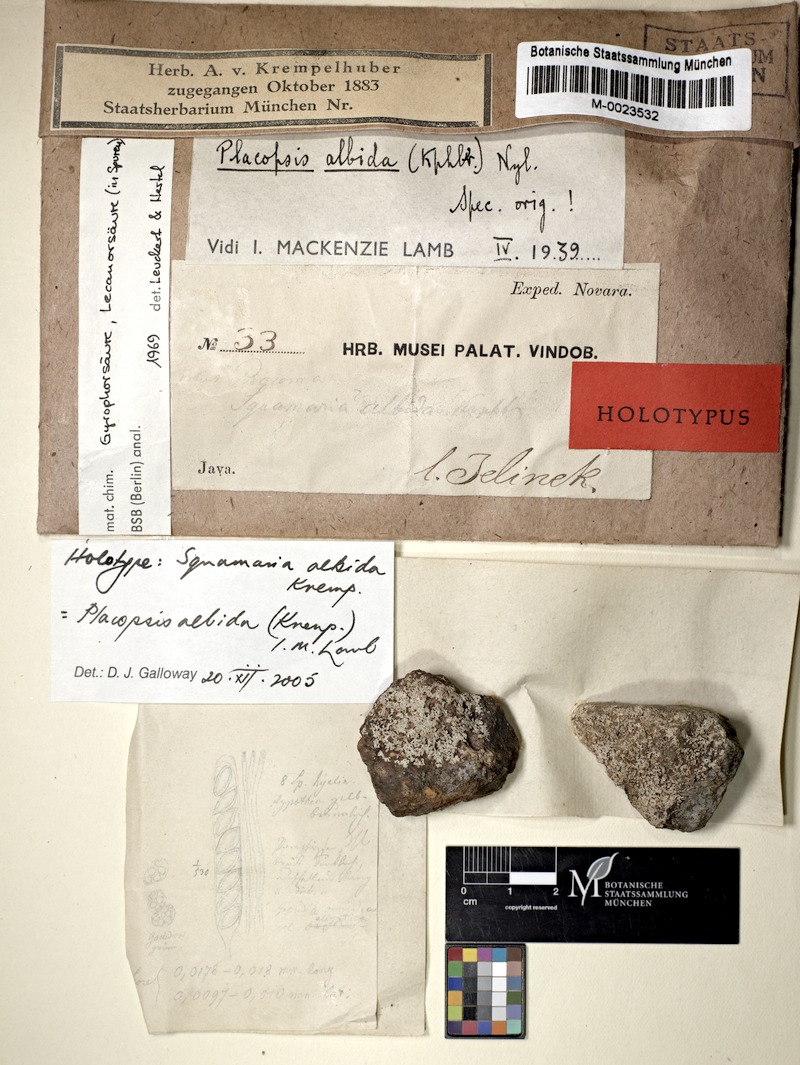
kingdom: Fungi
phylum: Ascomycota
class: Lecanoromycetes
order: Baeomycetales
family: Trapeliaceae
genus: Placopsis
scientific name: Placopsis
